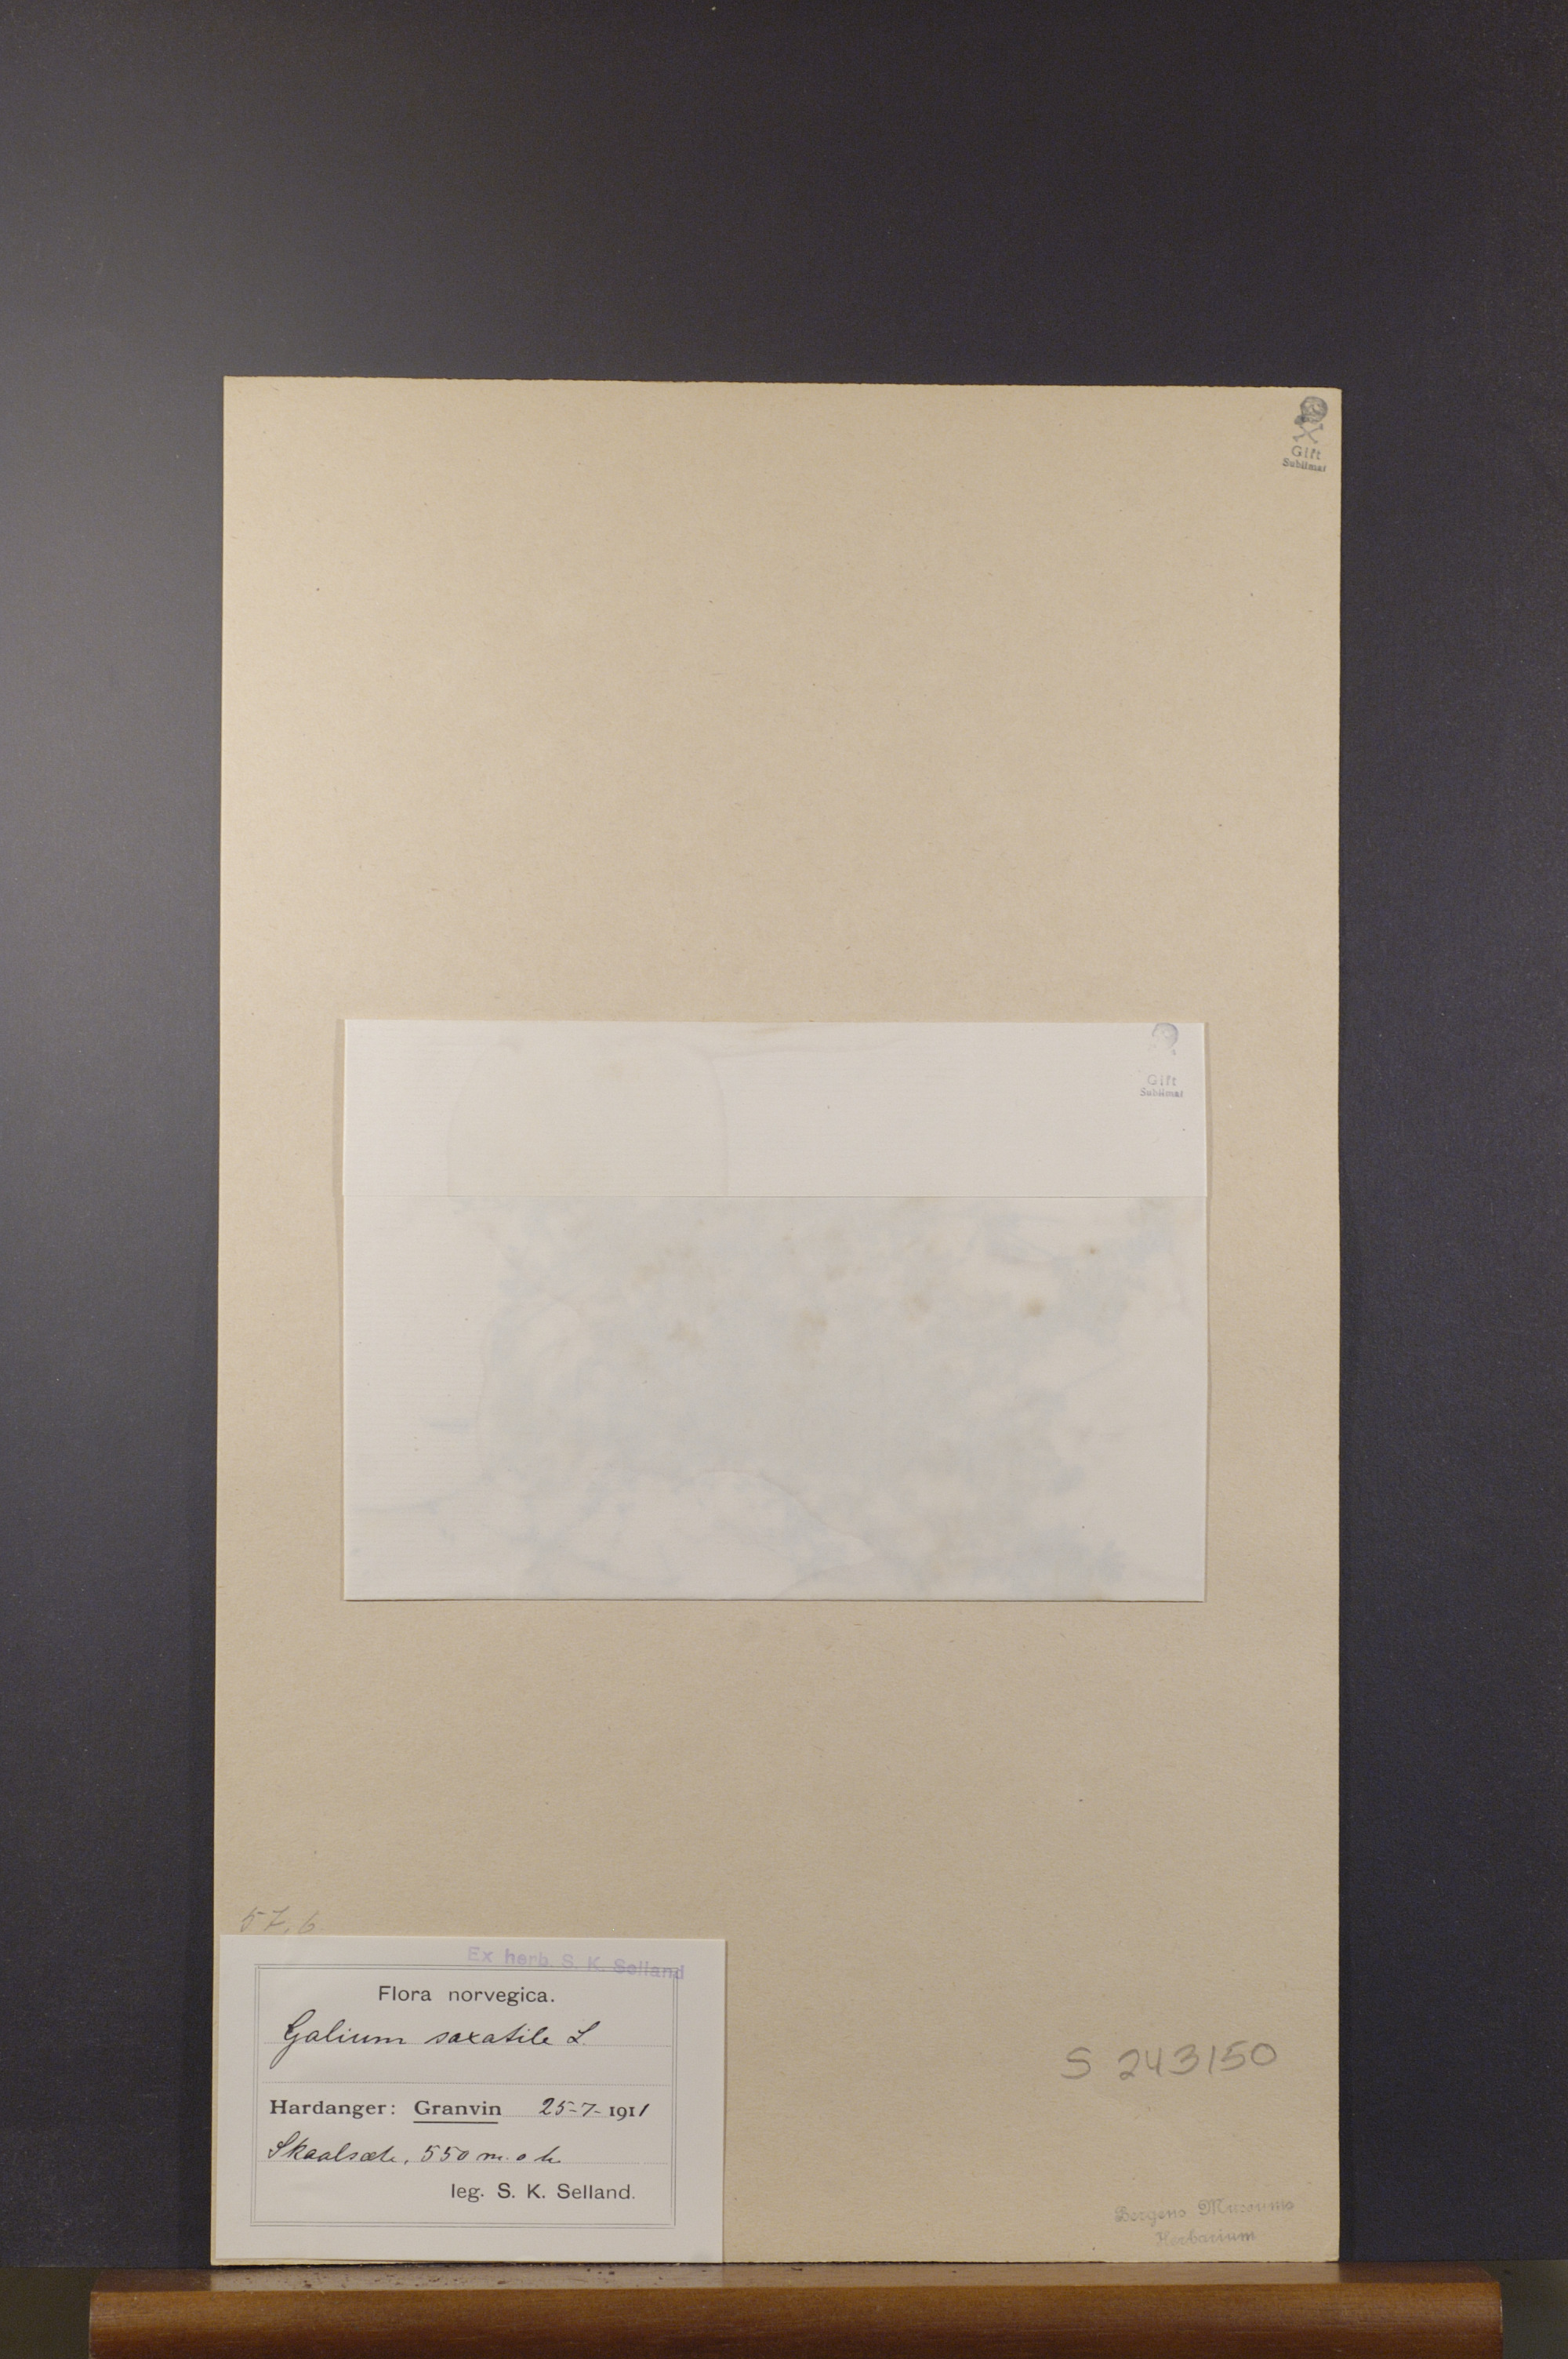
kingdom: Plantae
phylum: Tracheophyta
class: Magnoliopsida
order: Gentianales
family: Rubiaceae
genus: Galium
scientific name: Galium saxatile
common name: Heath bedstraw
